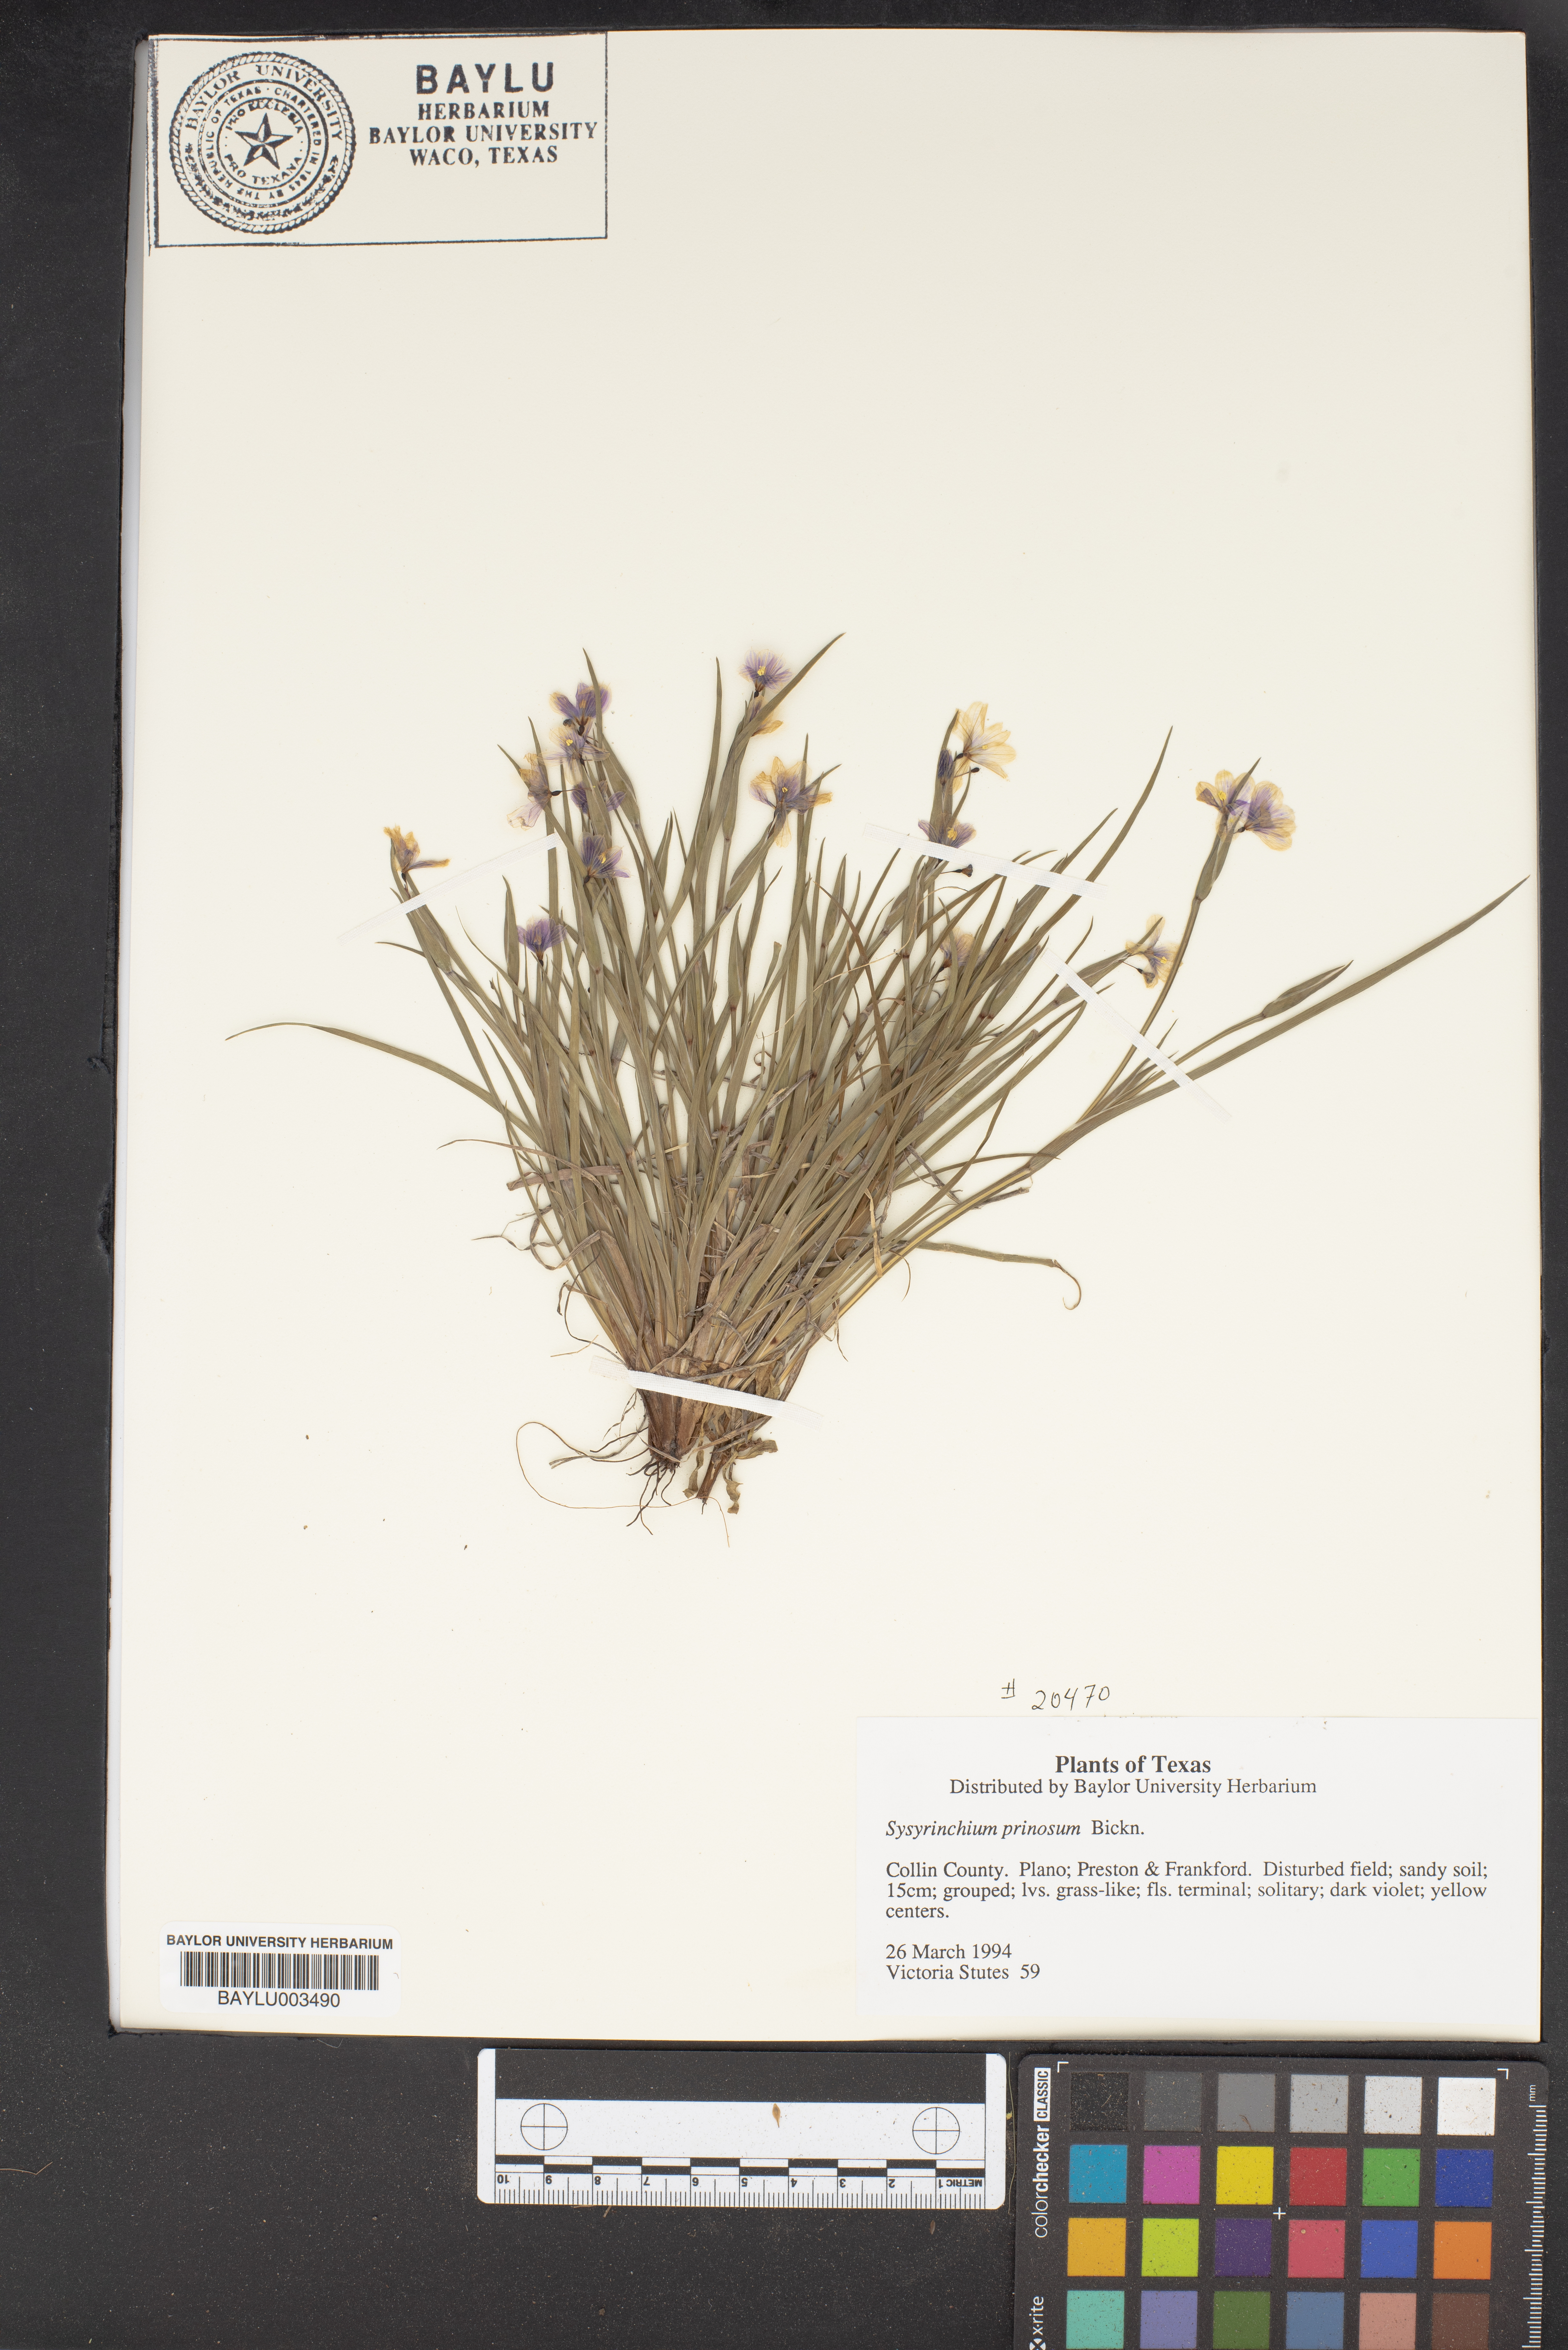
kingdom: Plantae
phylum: Tracheophyta
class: Liliopsida
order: Asparagales
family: Iridaceae
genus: Sisyrinchium
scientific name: Sisyrinchium
